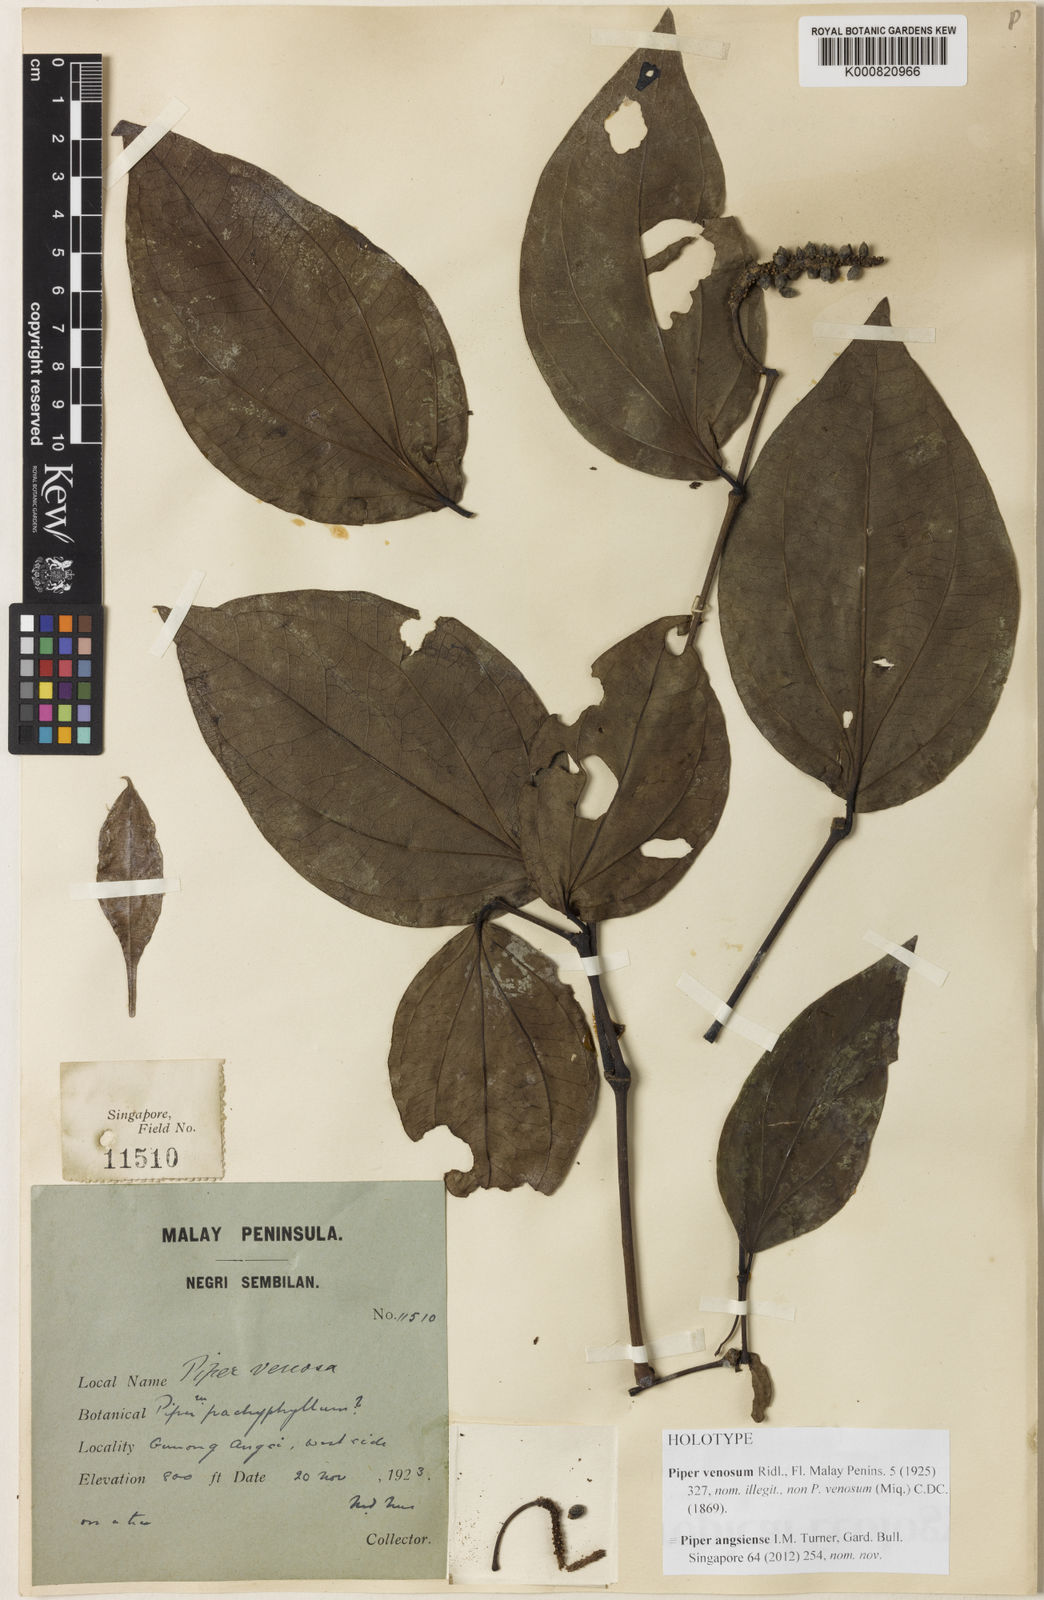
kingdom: Plantae
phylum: Tracheophyta
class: Magnoliopsida
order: Piperales
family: Piperaceae
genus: Piper
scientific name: Piper angsiense
